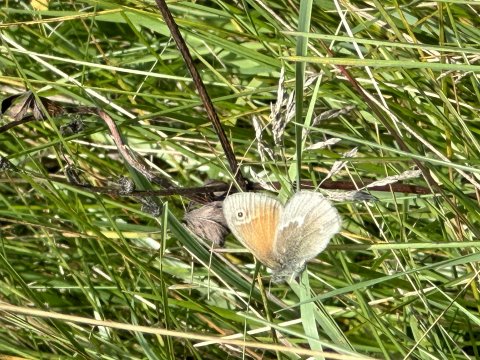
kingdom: Animalia
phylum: Arthropoda
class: Insecta
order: Lepidoptera
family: Nymphalidae
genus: Coenonympha
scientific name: Coenonympha tullia
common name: Large Heath
